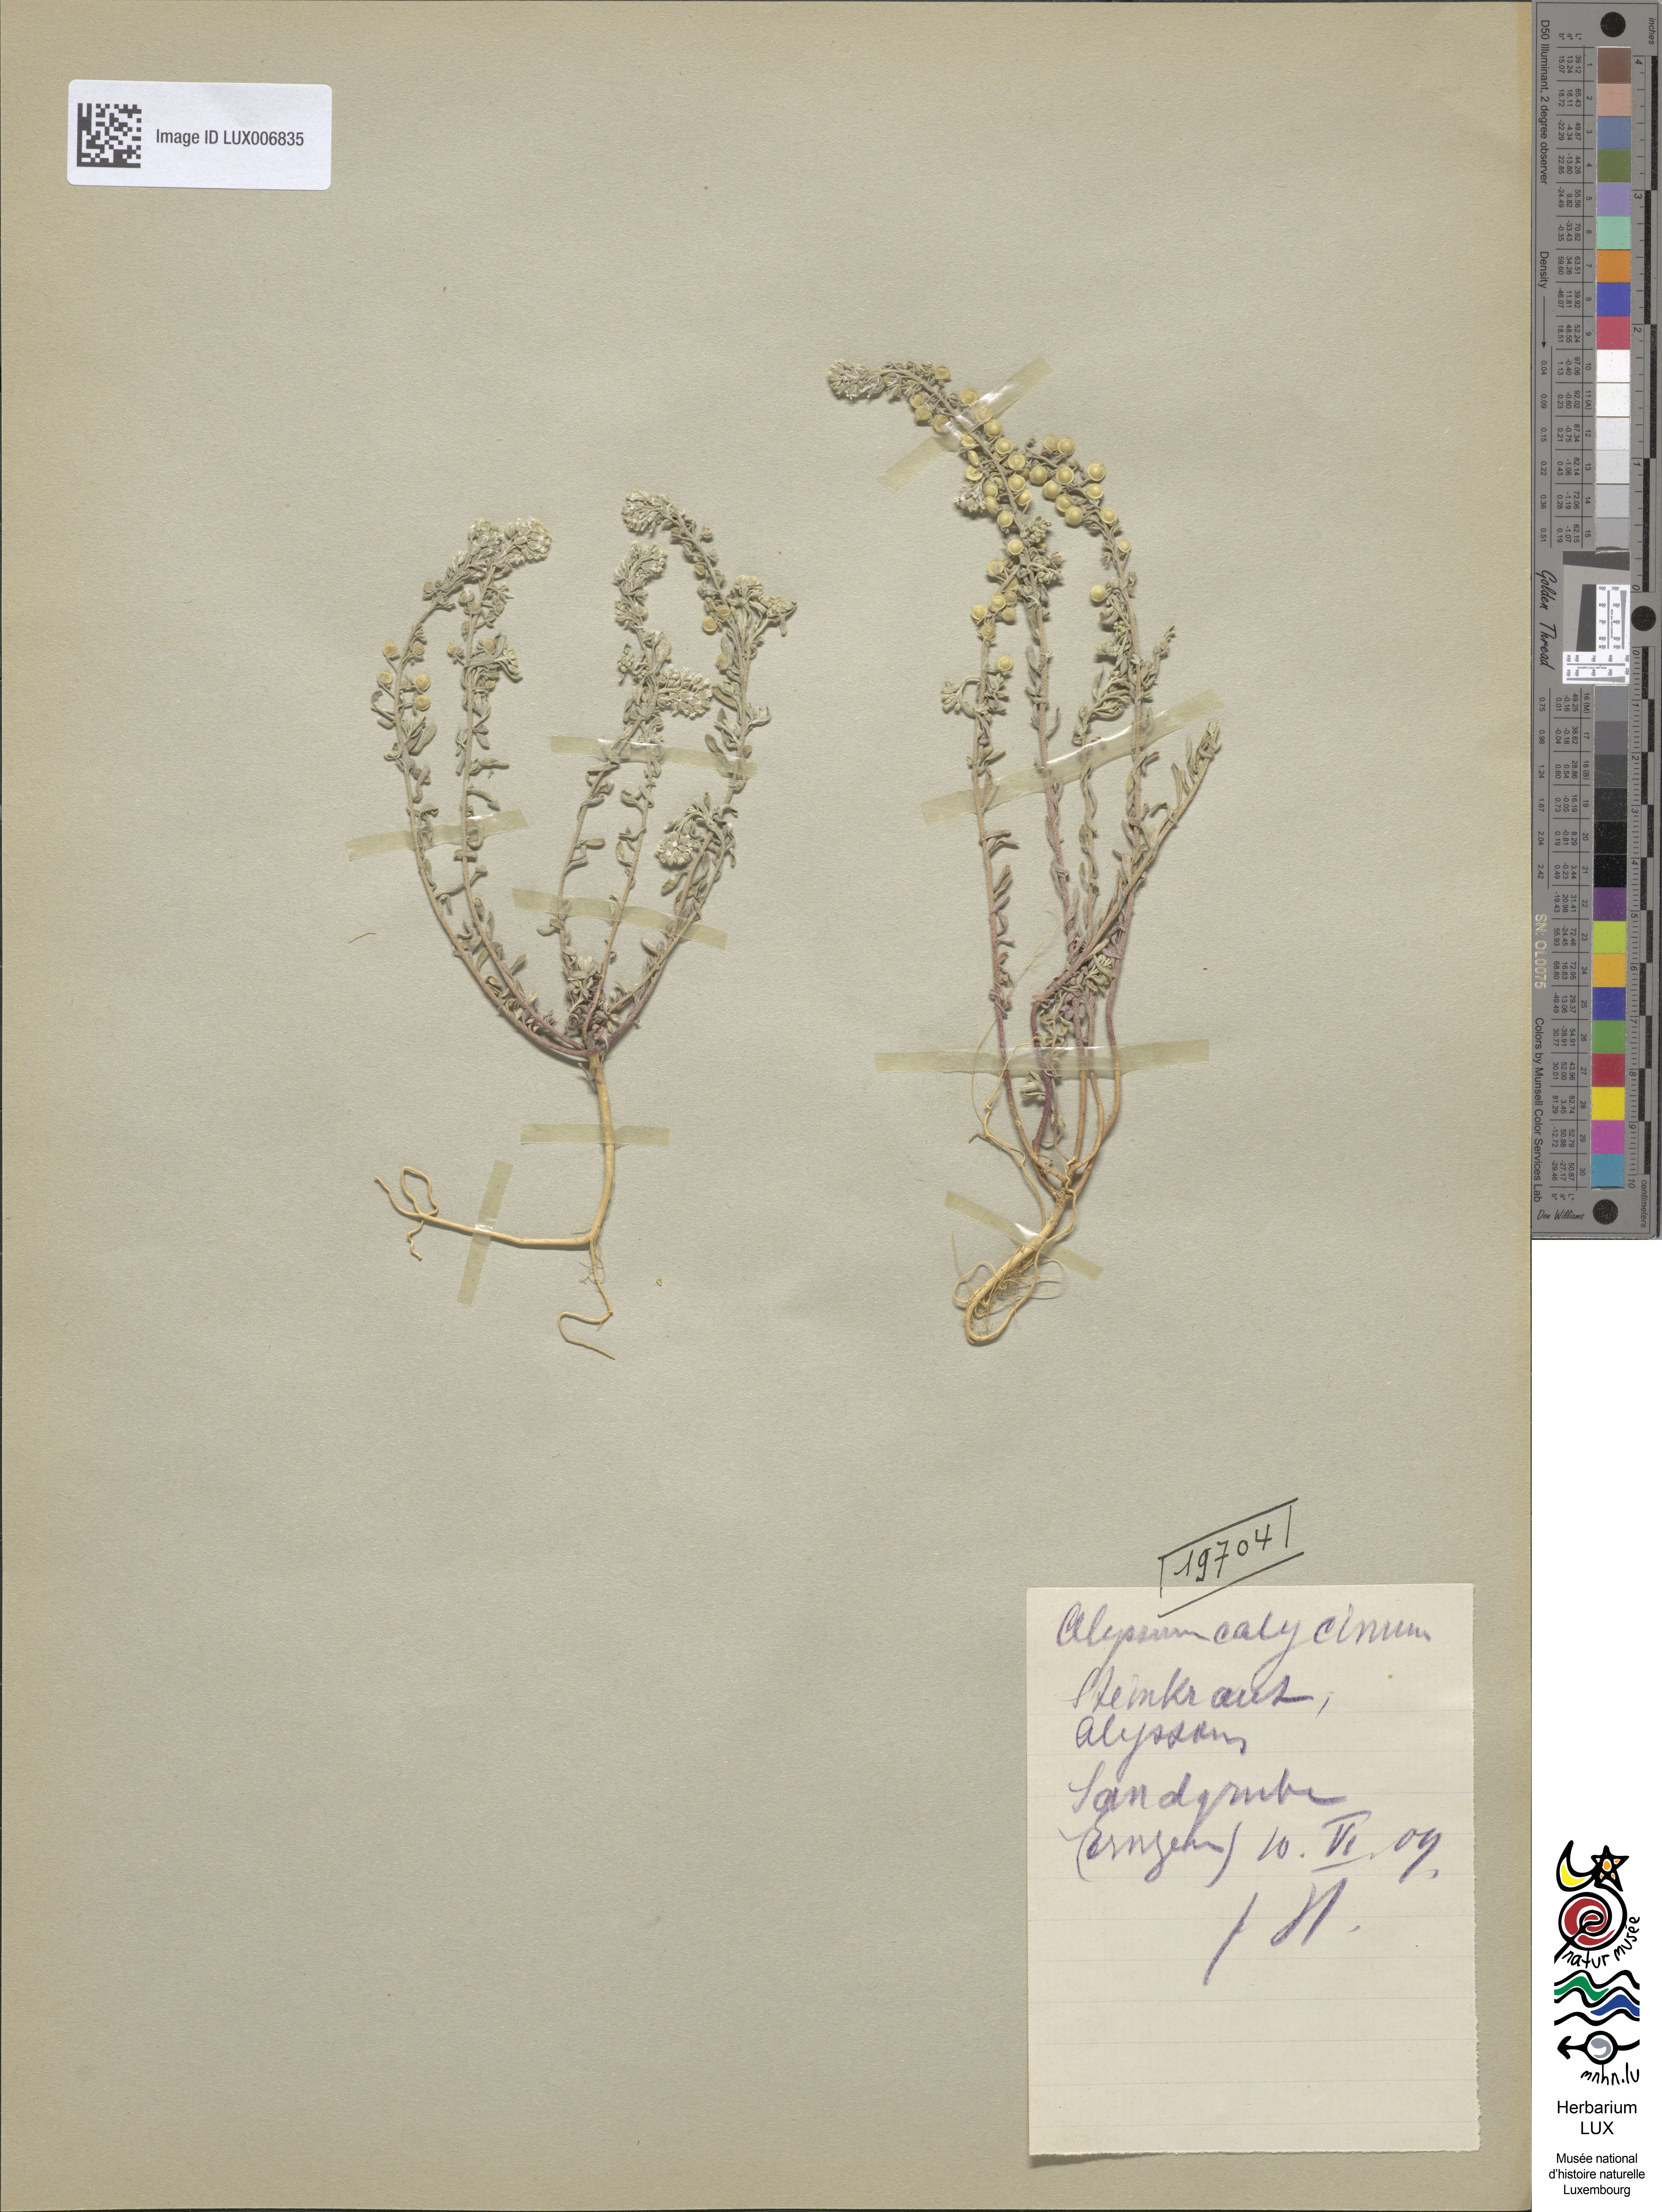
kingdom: Plantae
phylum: Tracheophyta
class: Magnoliopsida
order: Brassicales
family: Brassicaceae
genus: Alyssum
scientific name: Alyssum alyssoides
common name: Small alison
